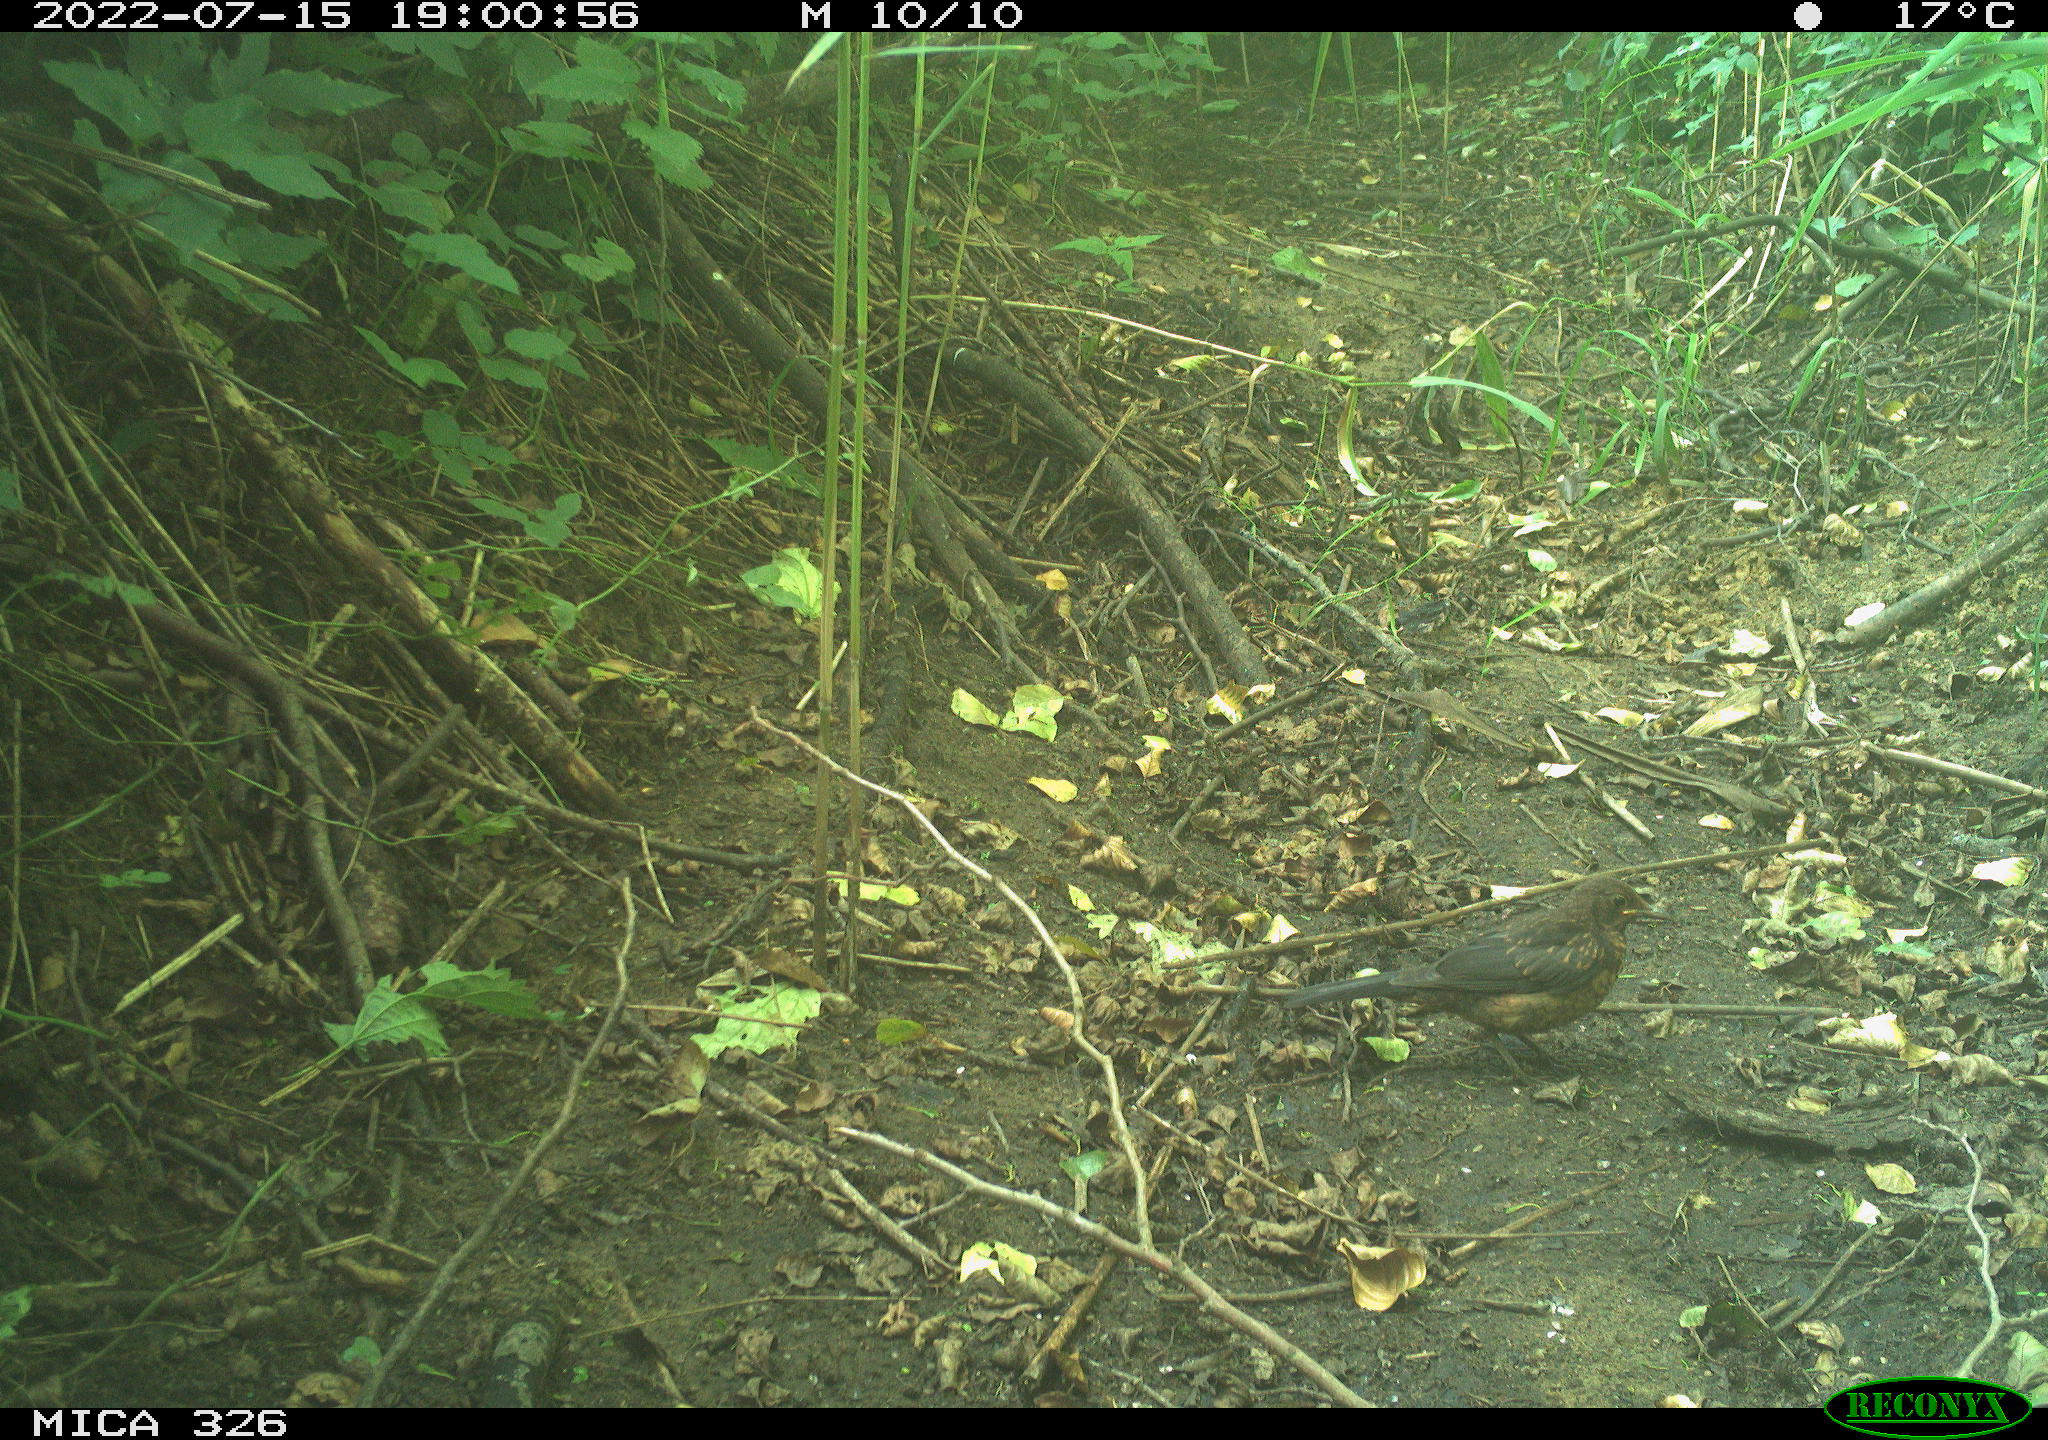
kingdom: Animalia
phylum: Chordata
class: Aves
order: Passeriformes
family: Turdidae
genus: Turdus
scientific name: Turdus philomelos
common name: Song thrush
